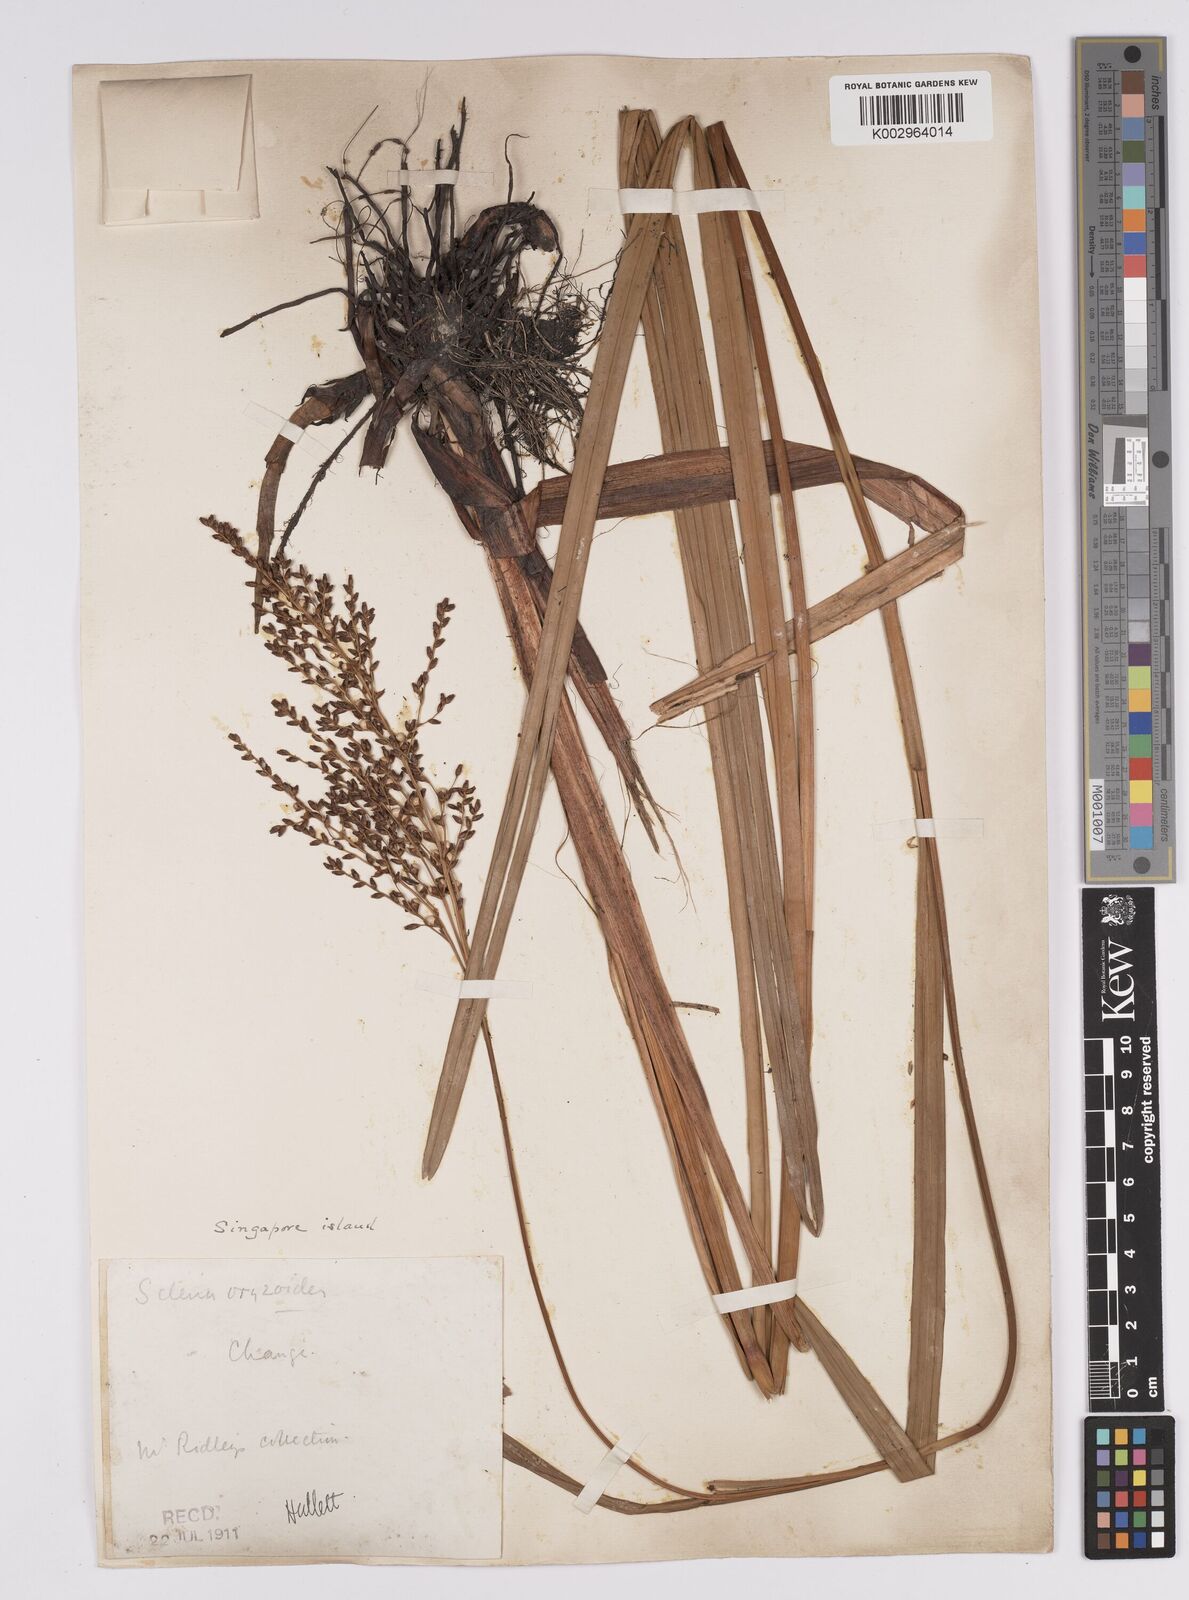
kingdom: Plantae
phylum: Tracheophyta
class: Liliopsida
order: Poales
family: Cyperaceae
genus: Scleria
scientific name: Scleria poiformis
